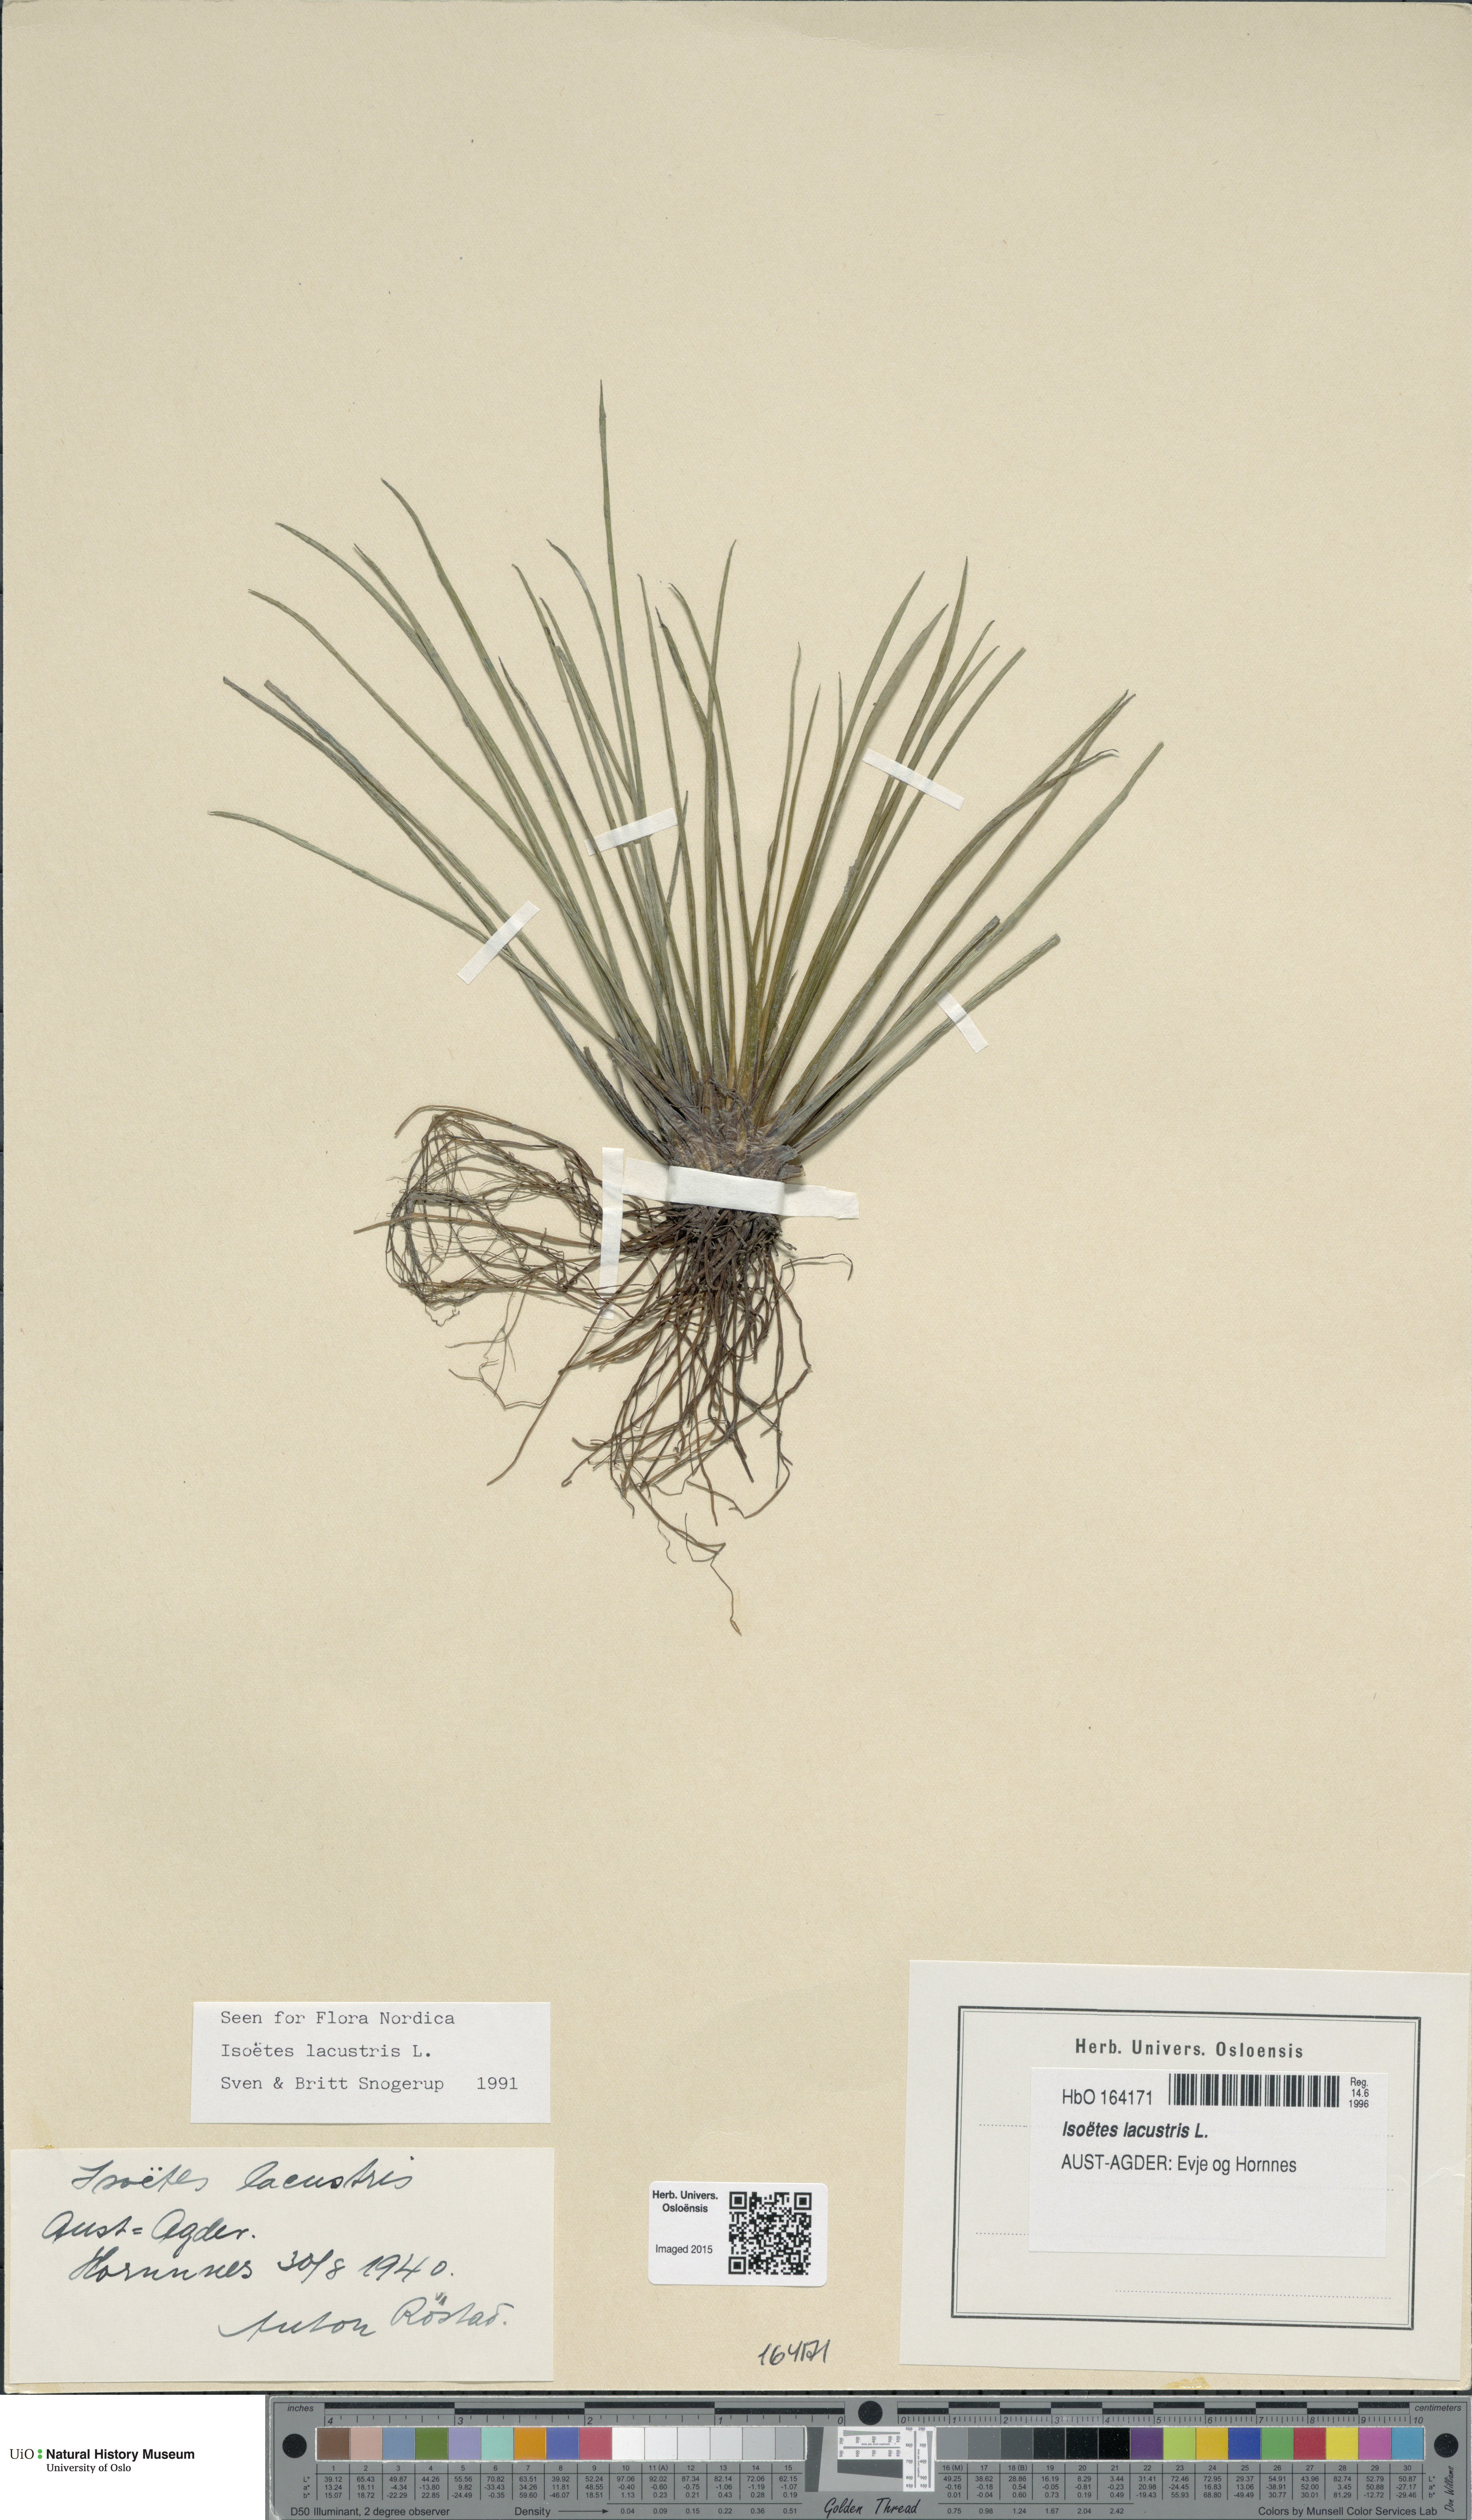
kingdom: Plantae
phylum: Tracheophyta
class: Lycopodiopsida
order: Isoetales
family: Isoetaceae
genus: Isoetes
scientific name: Isoetes lacustris
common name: Common quillwort
